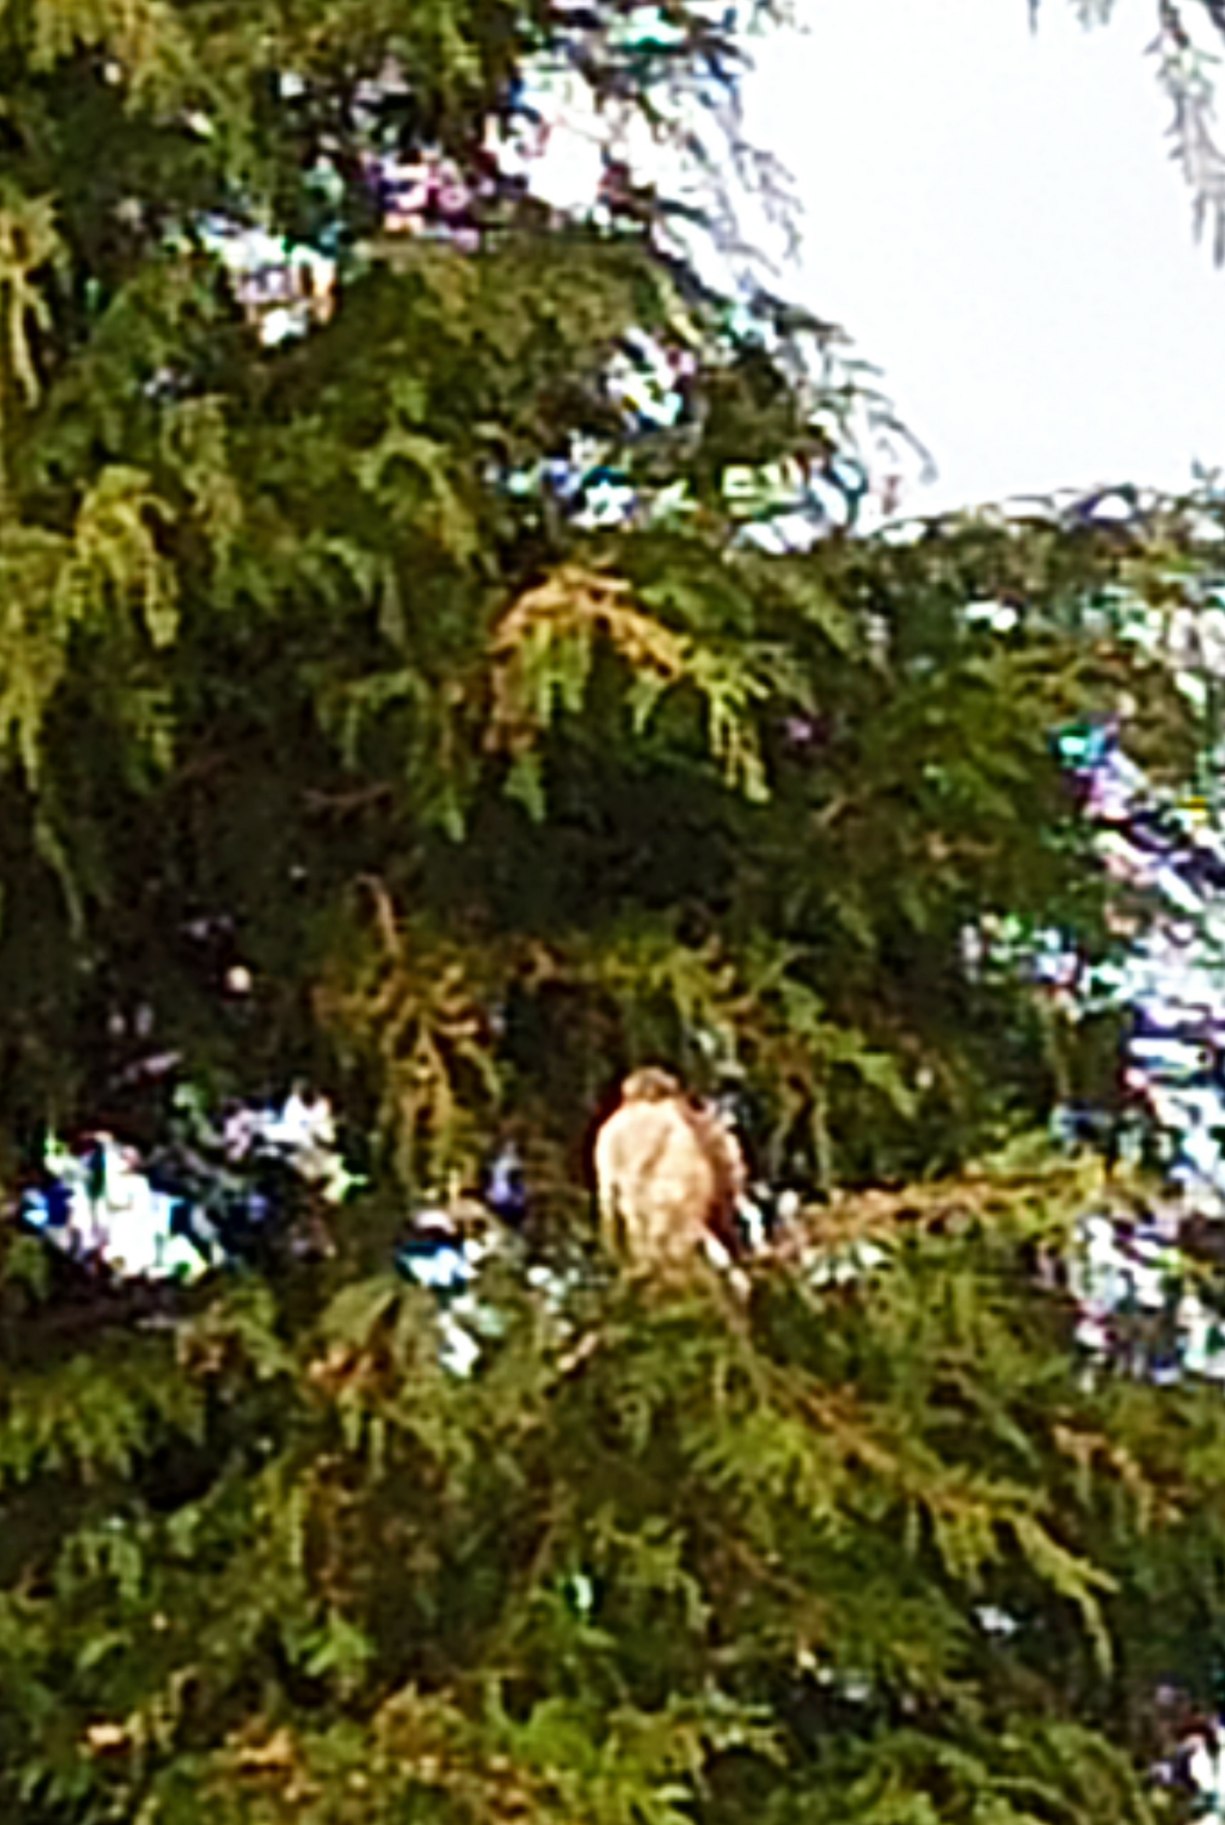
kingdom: Animalia
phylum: Chordata
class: Aves
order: Accipitriformes
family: Accipitridae
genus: Accipiter
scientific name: Accipiter nisus
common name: Spurvehøg
